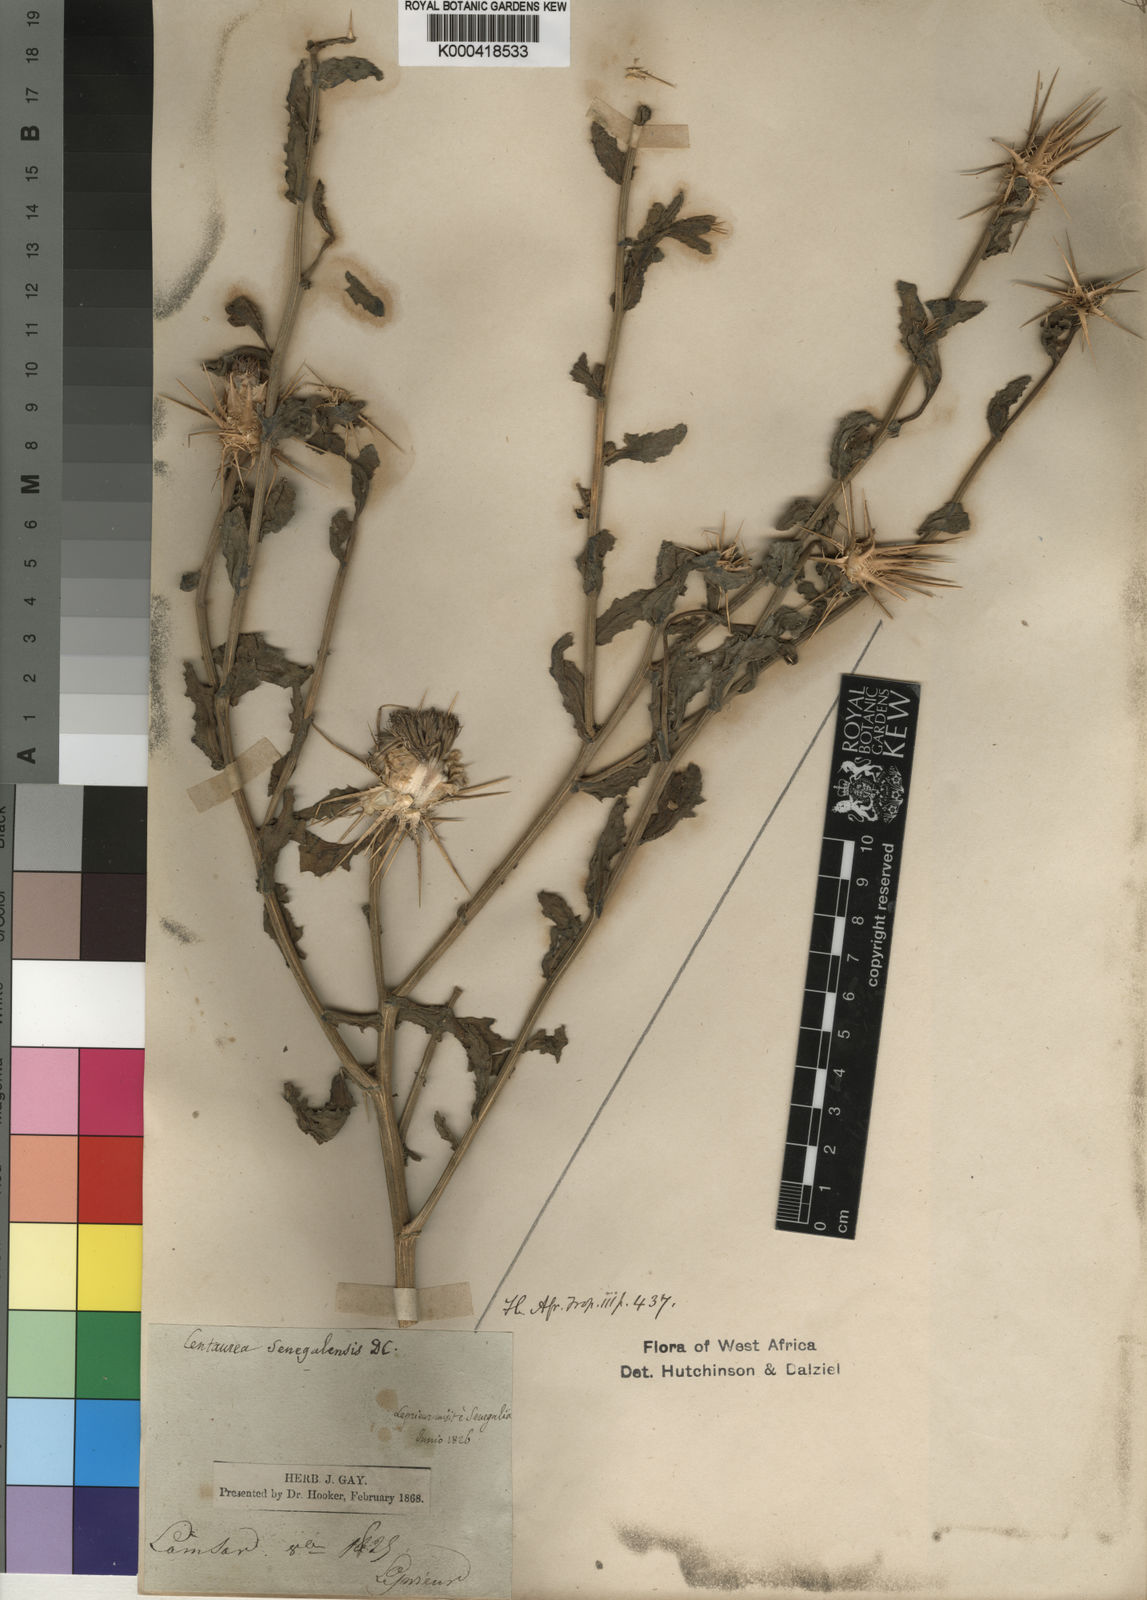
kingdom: Plantae
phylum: Tracheophyta
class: Magnoliopsida
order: Asterales
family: Asteraceae
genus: Centaurea
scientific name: Centaurea senegalensis
